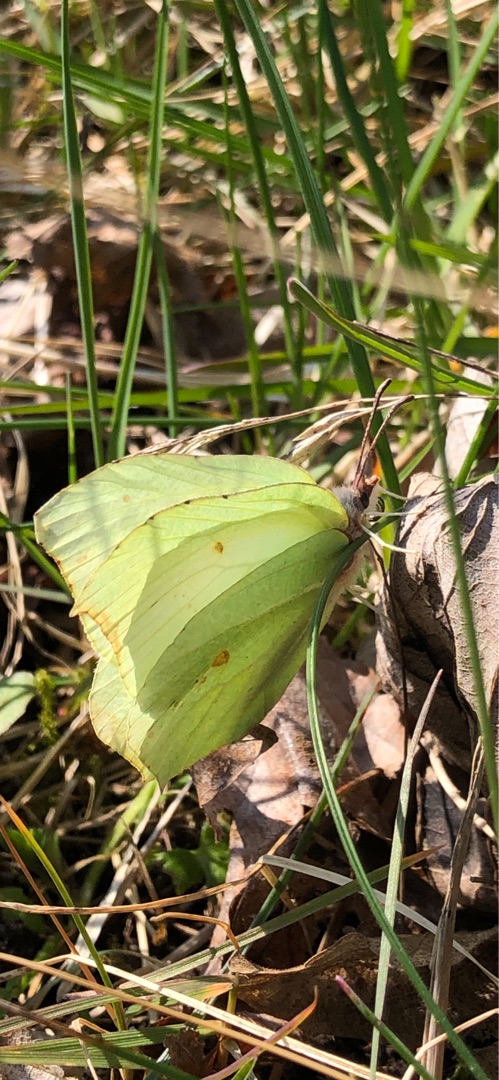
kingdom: Animalia
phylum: Arthropoda
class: Insecta
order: Lepidoptera
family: Pieridae
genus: Gonepteryx
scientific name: Gonepteryx rhamni
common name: Citronsommerfugl
